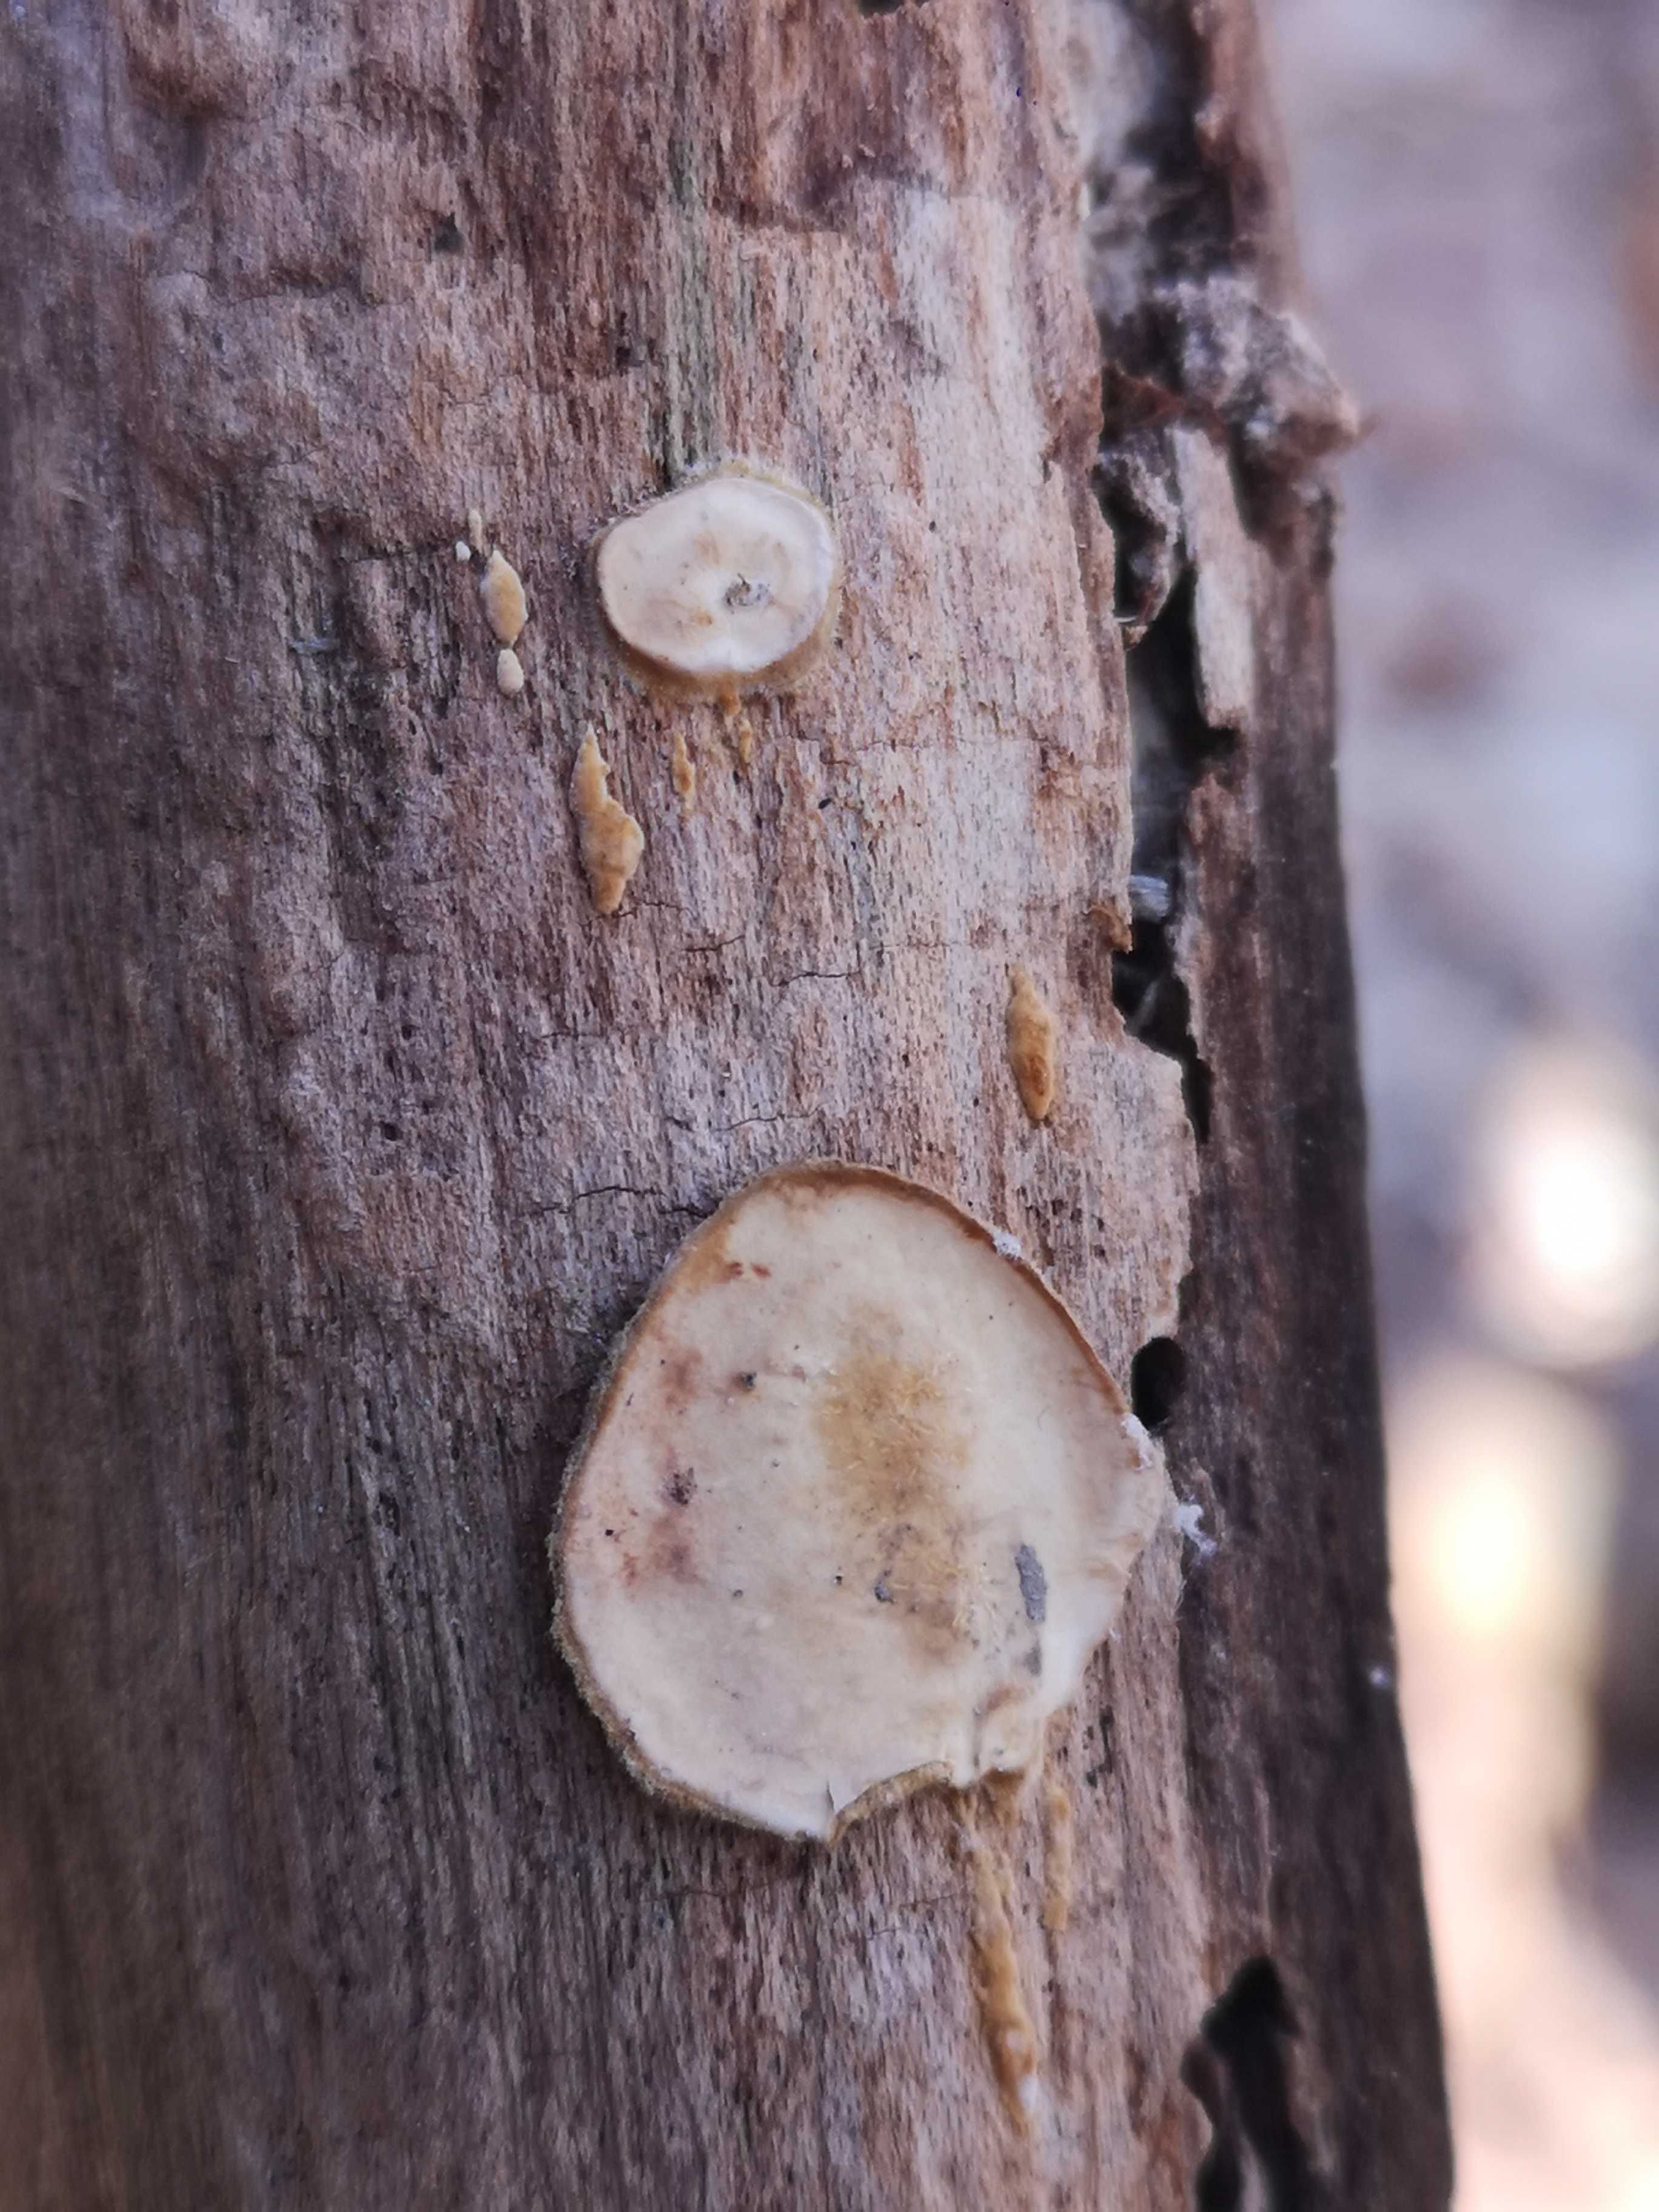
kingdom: Fungi
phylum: Basidiomycota
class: Agaricomycetes
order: Russulales
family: Stereaceae
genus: Stereum
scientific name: Stereum
